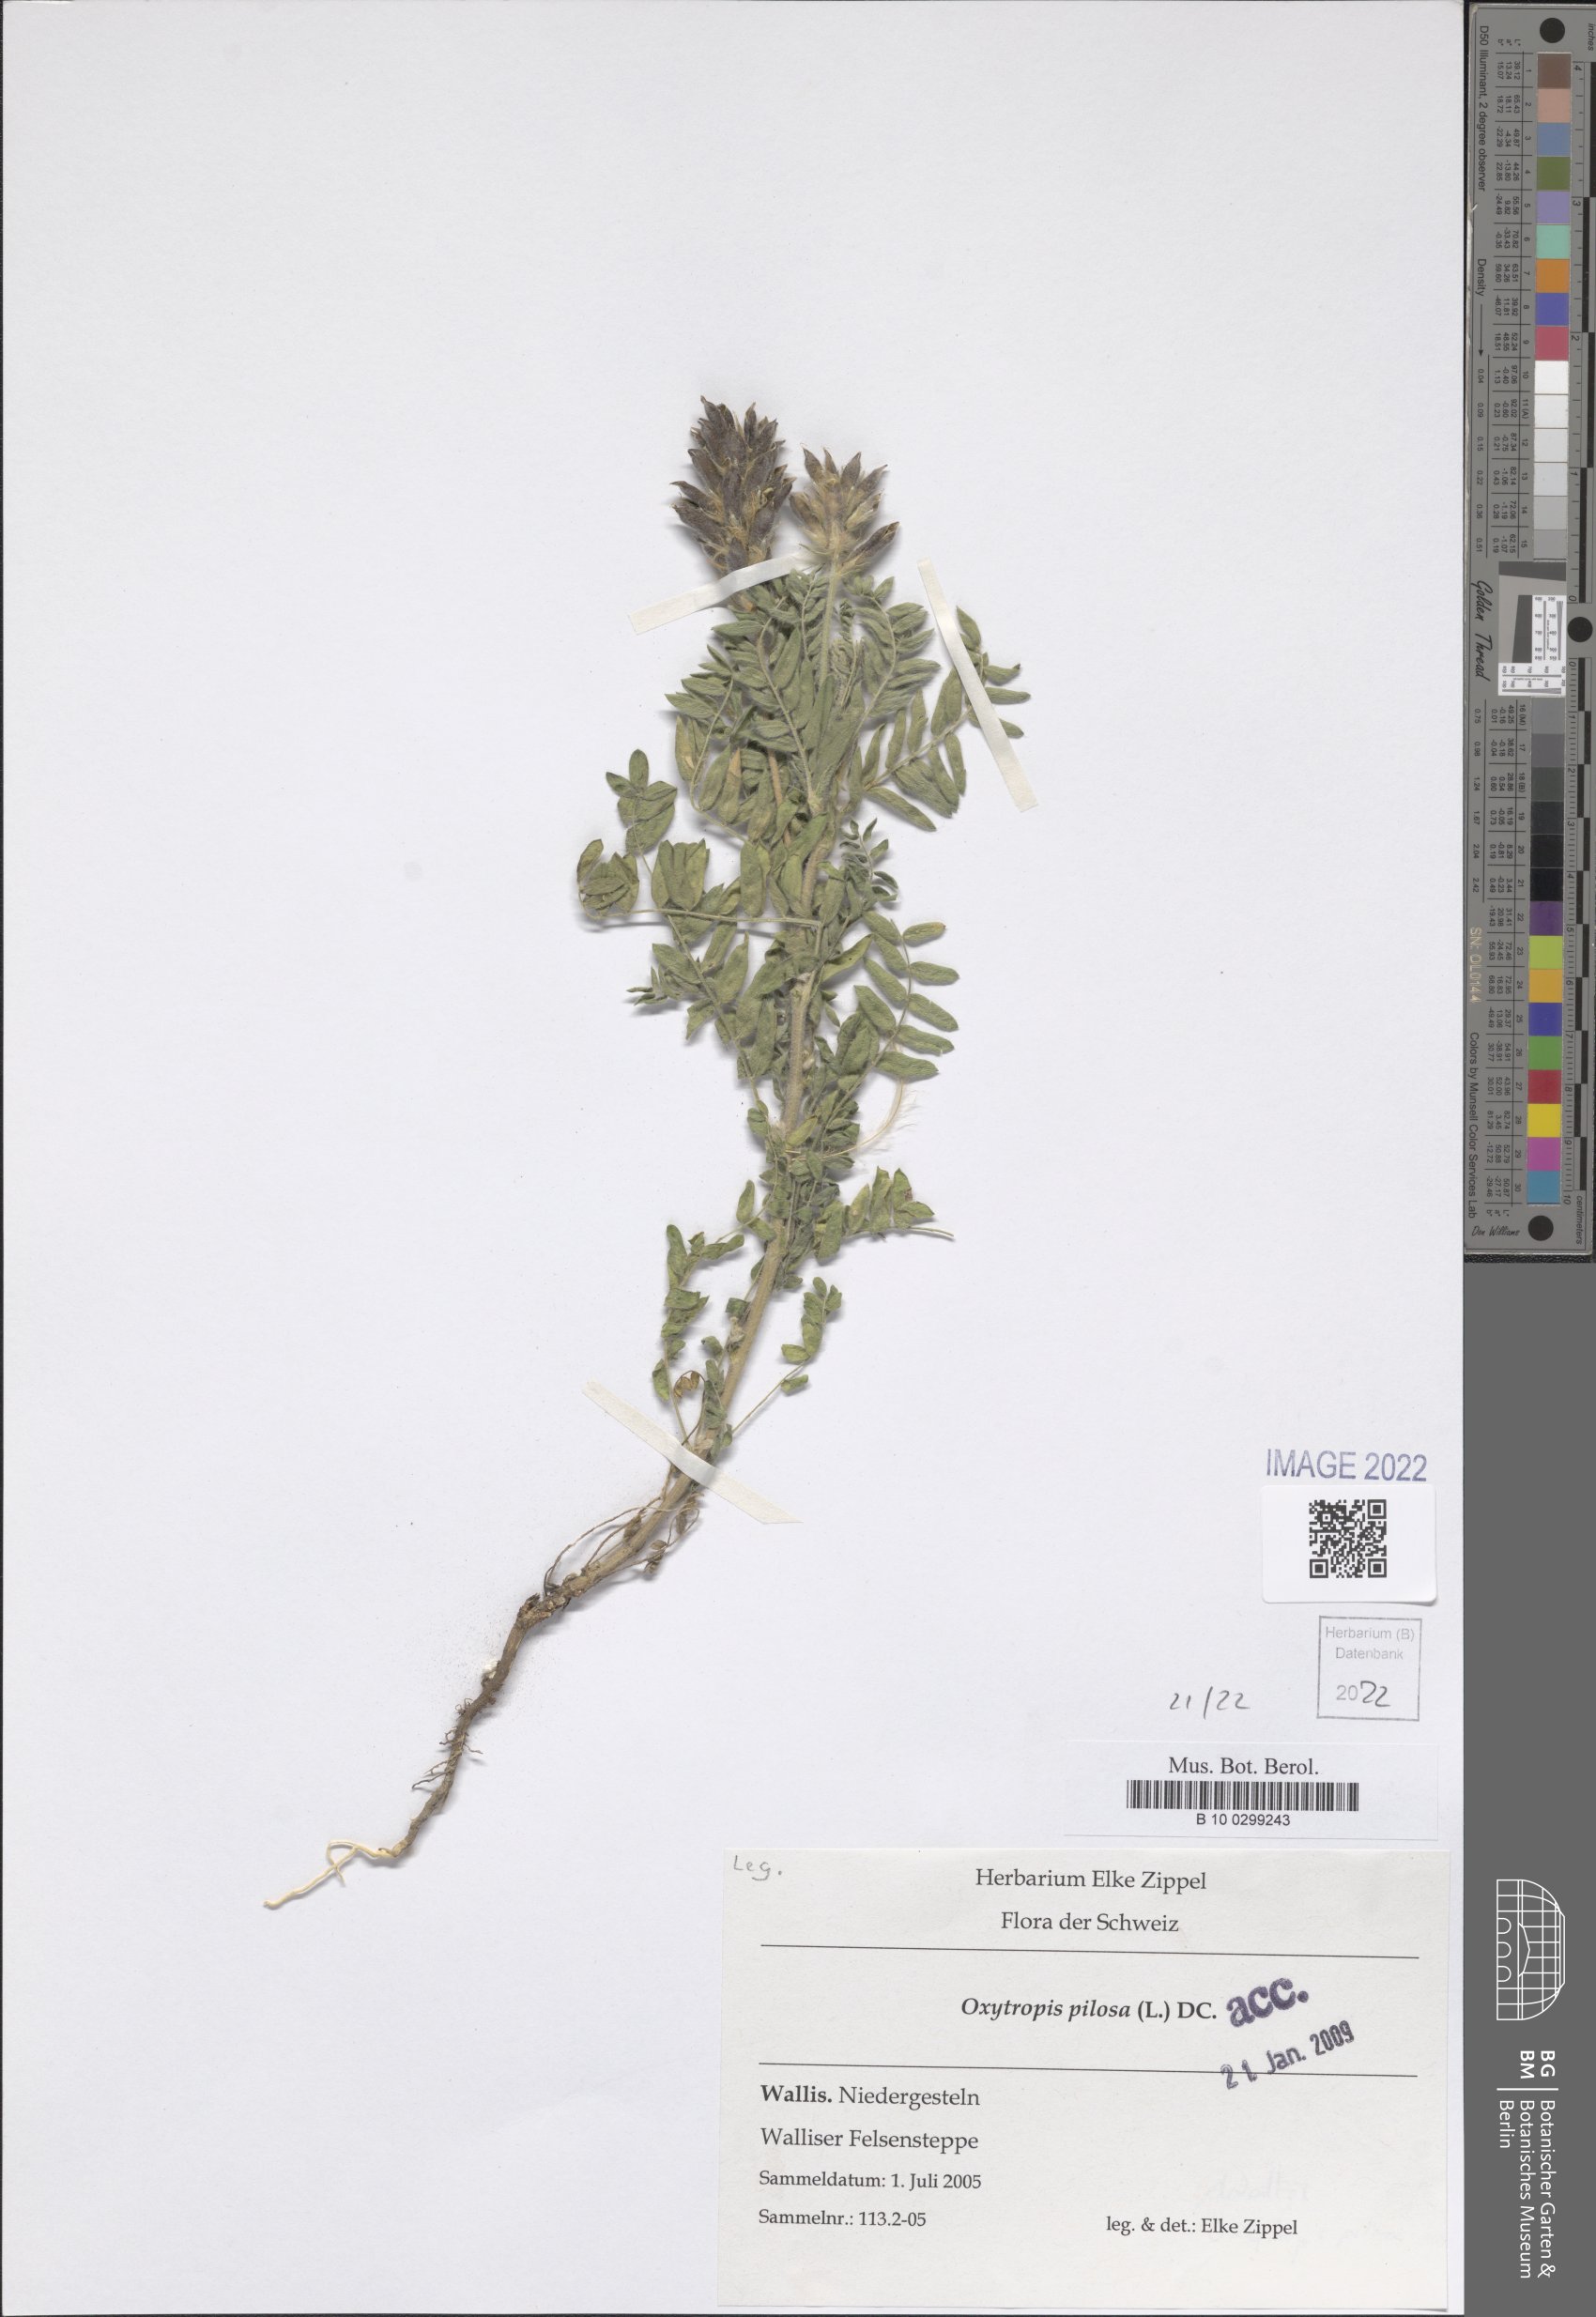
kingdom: Plantae
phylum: Tracheophyta
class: Magnoliopsida
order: Fabales
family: Fabaceae
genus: Oxytropis
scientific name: Oxytropis pilosa
